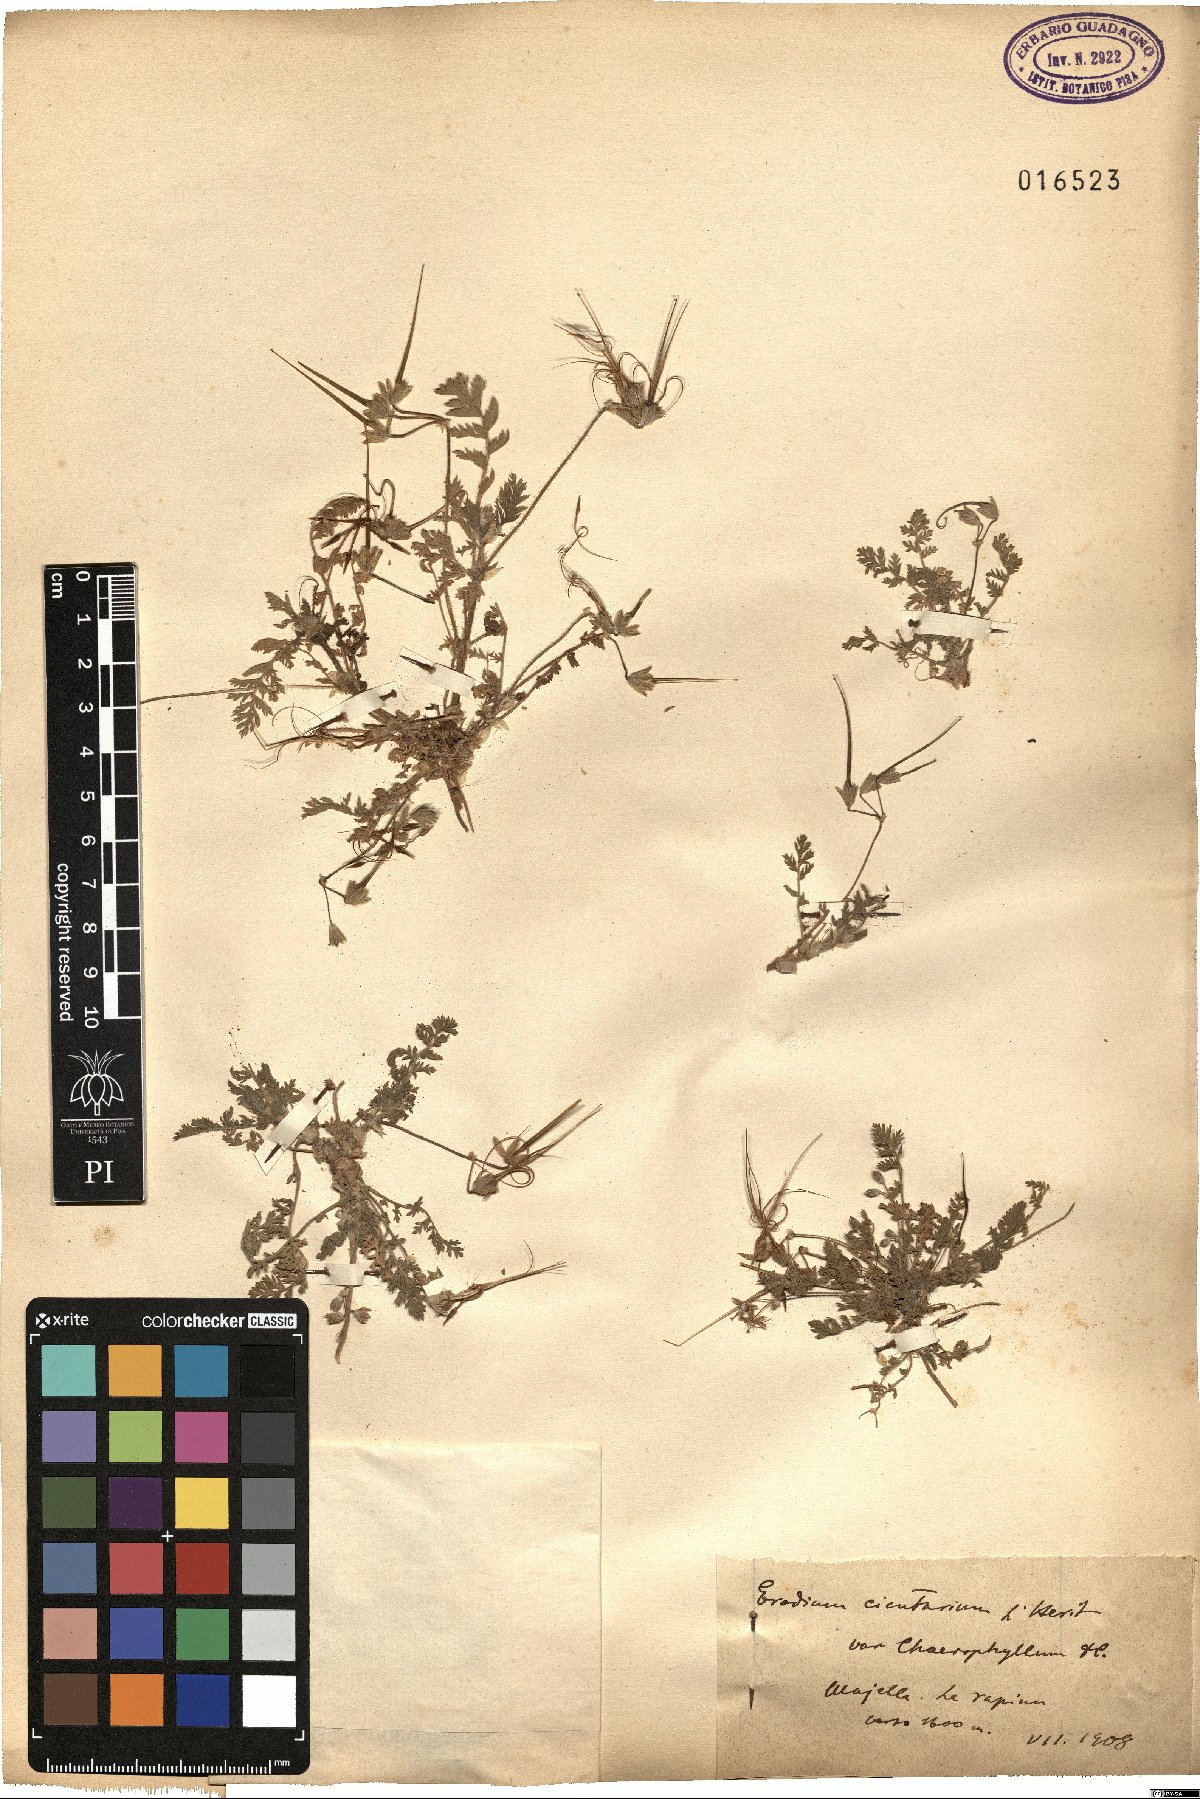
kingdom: Plantae
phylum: Tracheophyta
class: Magnoliopsida
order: Geraniales
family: Geraniaceae
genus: Erodium
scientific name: Erodium cicutarium
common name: Common stork's-bill
